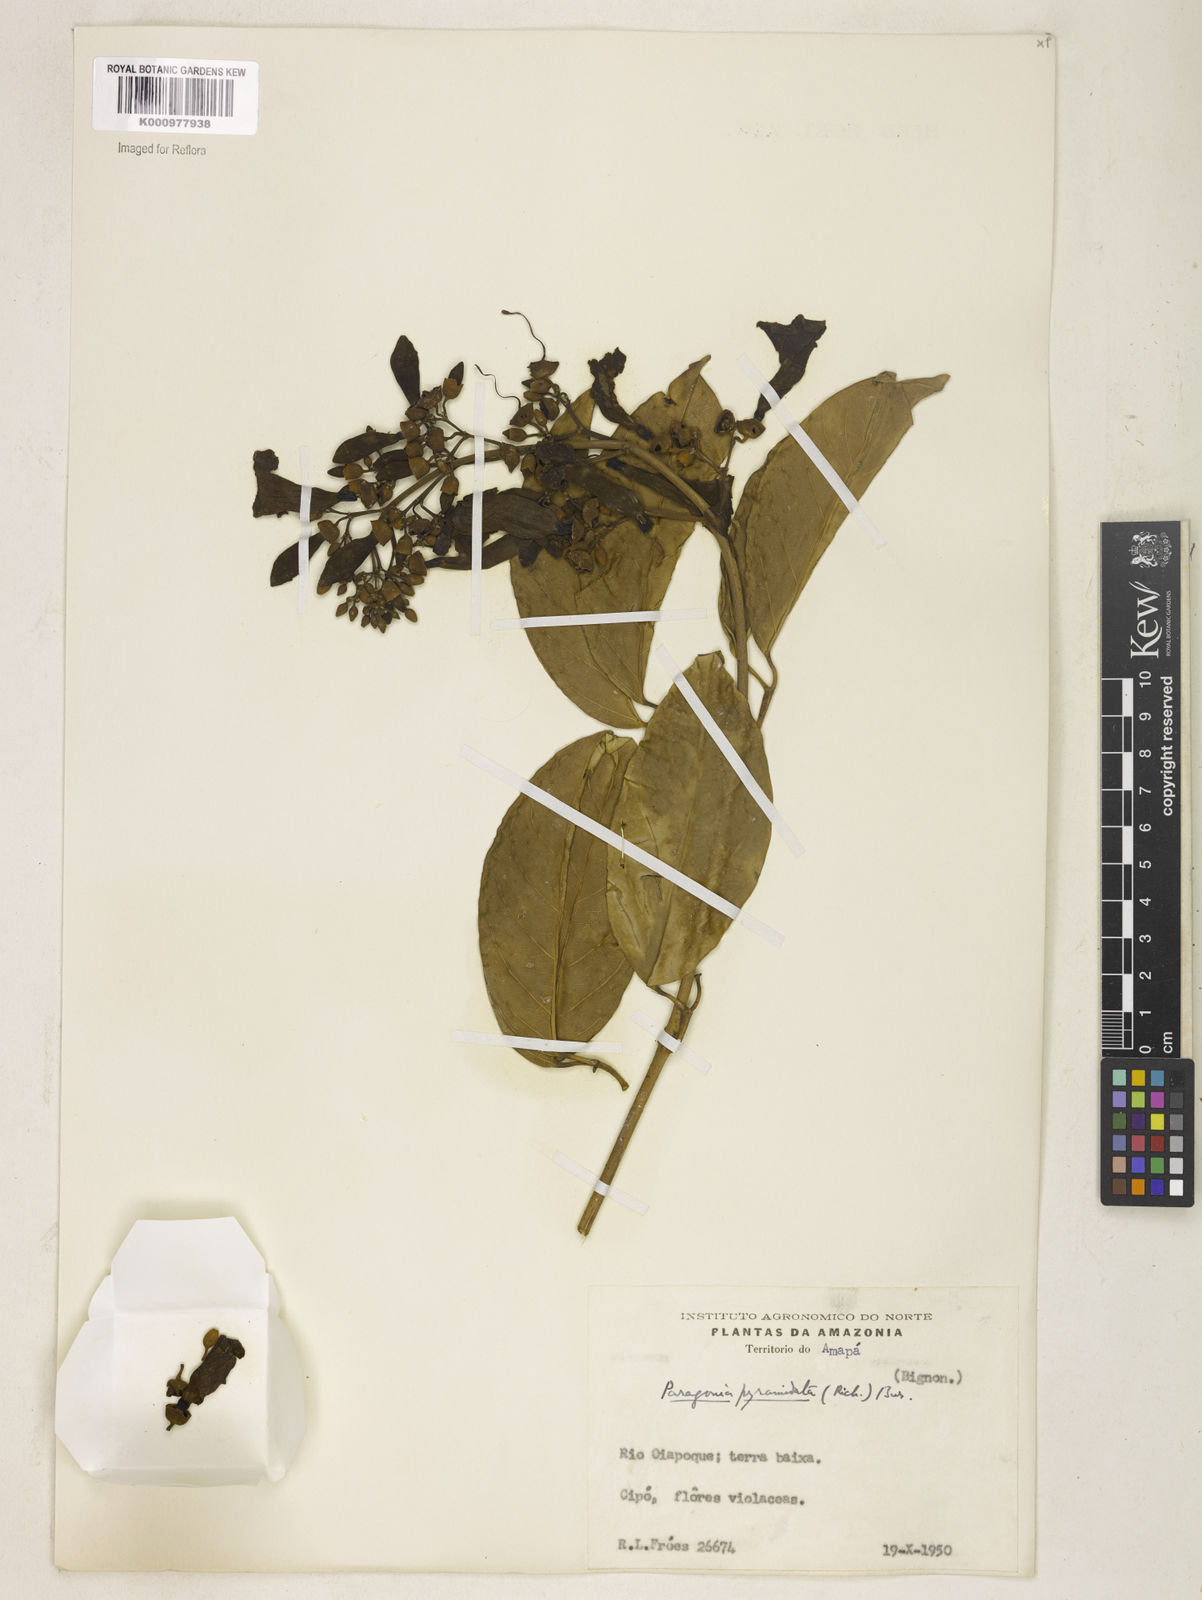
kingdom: Plantae
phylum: Tracheophyta
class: Magnoliopsida
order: Lamiales
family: Bignoniaceae
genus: Tanaecium
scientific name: Tanaecium pyramidatum
